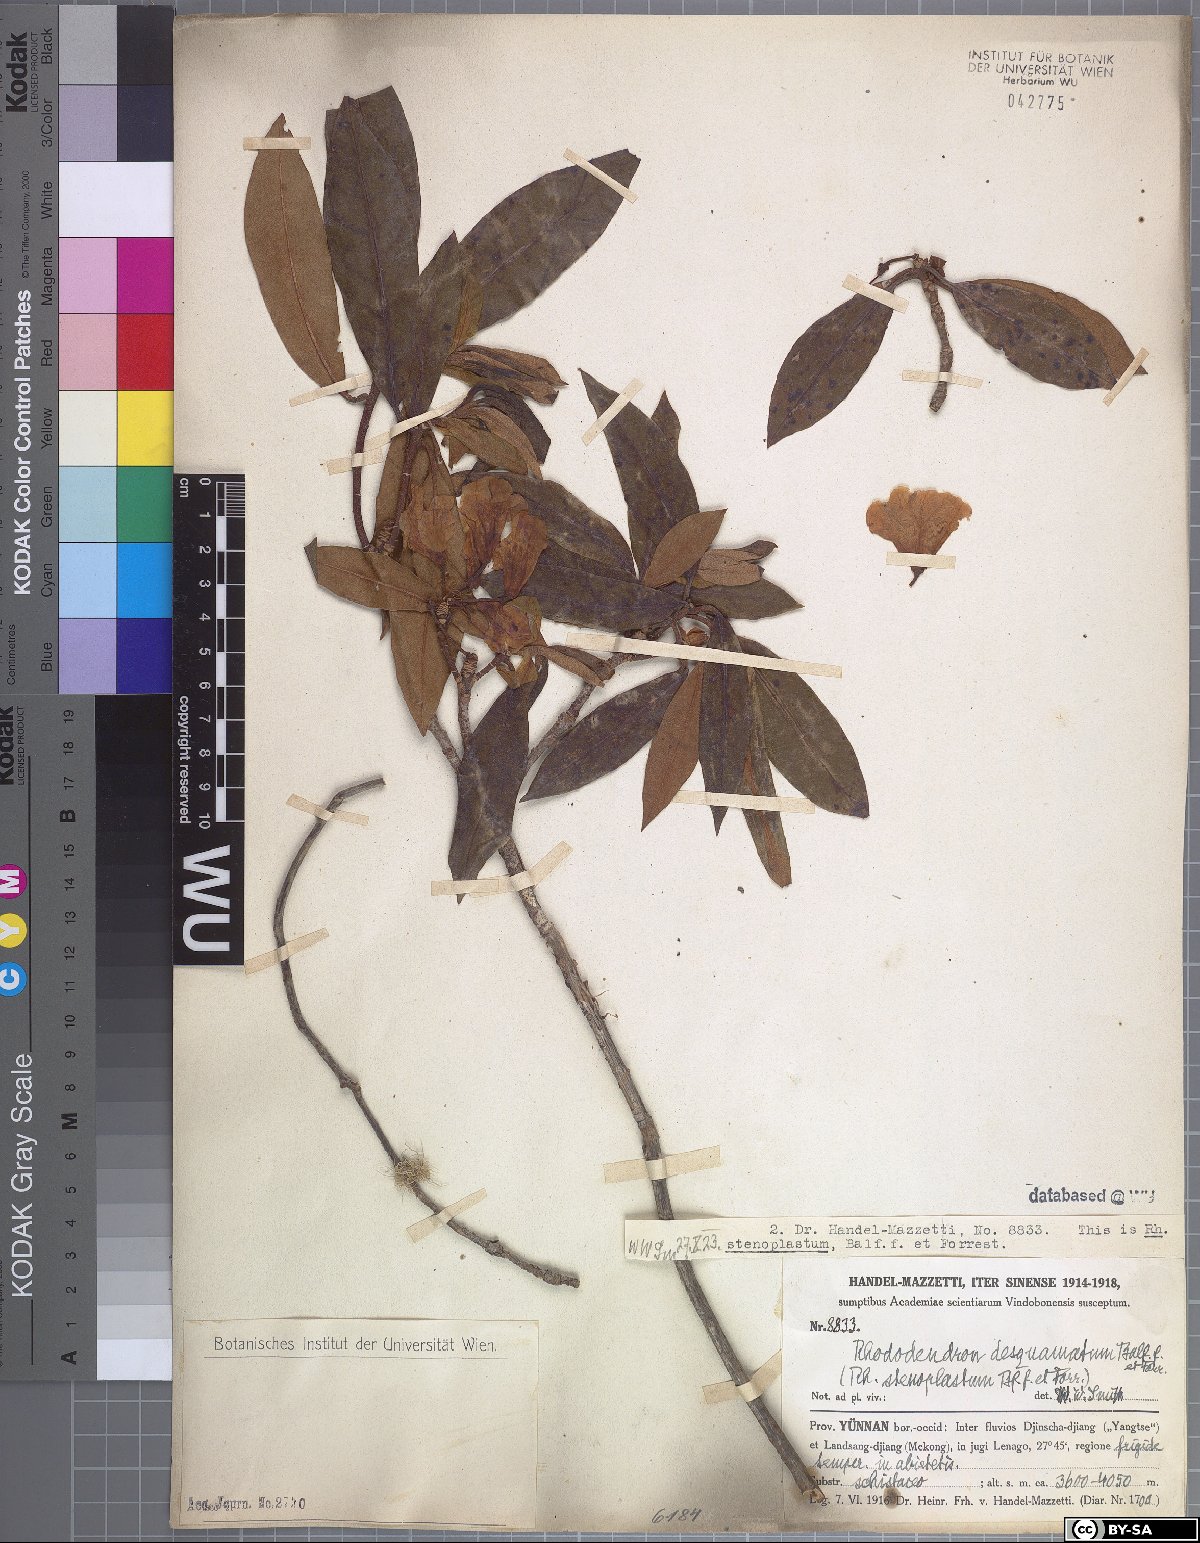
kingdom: Plantae
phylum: Tracheophyta
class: Magnoliopsida
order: Ericales
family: Ericaceae
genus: Rhododendron
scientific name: Rhododendron rubiginosum
